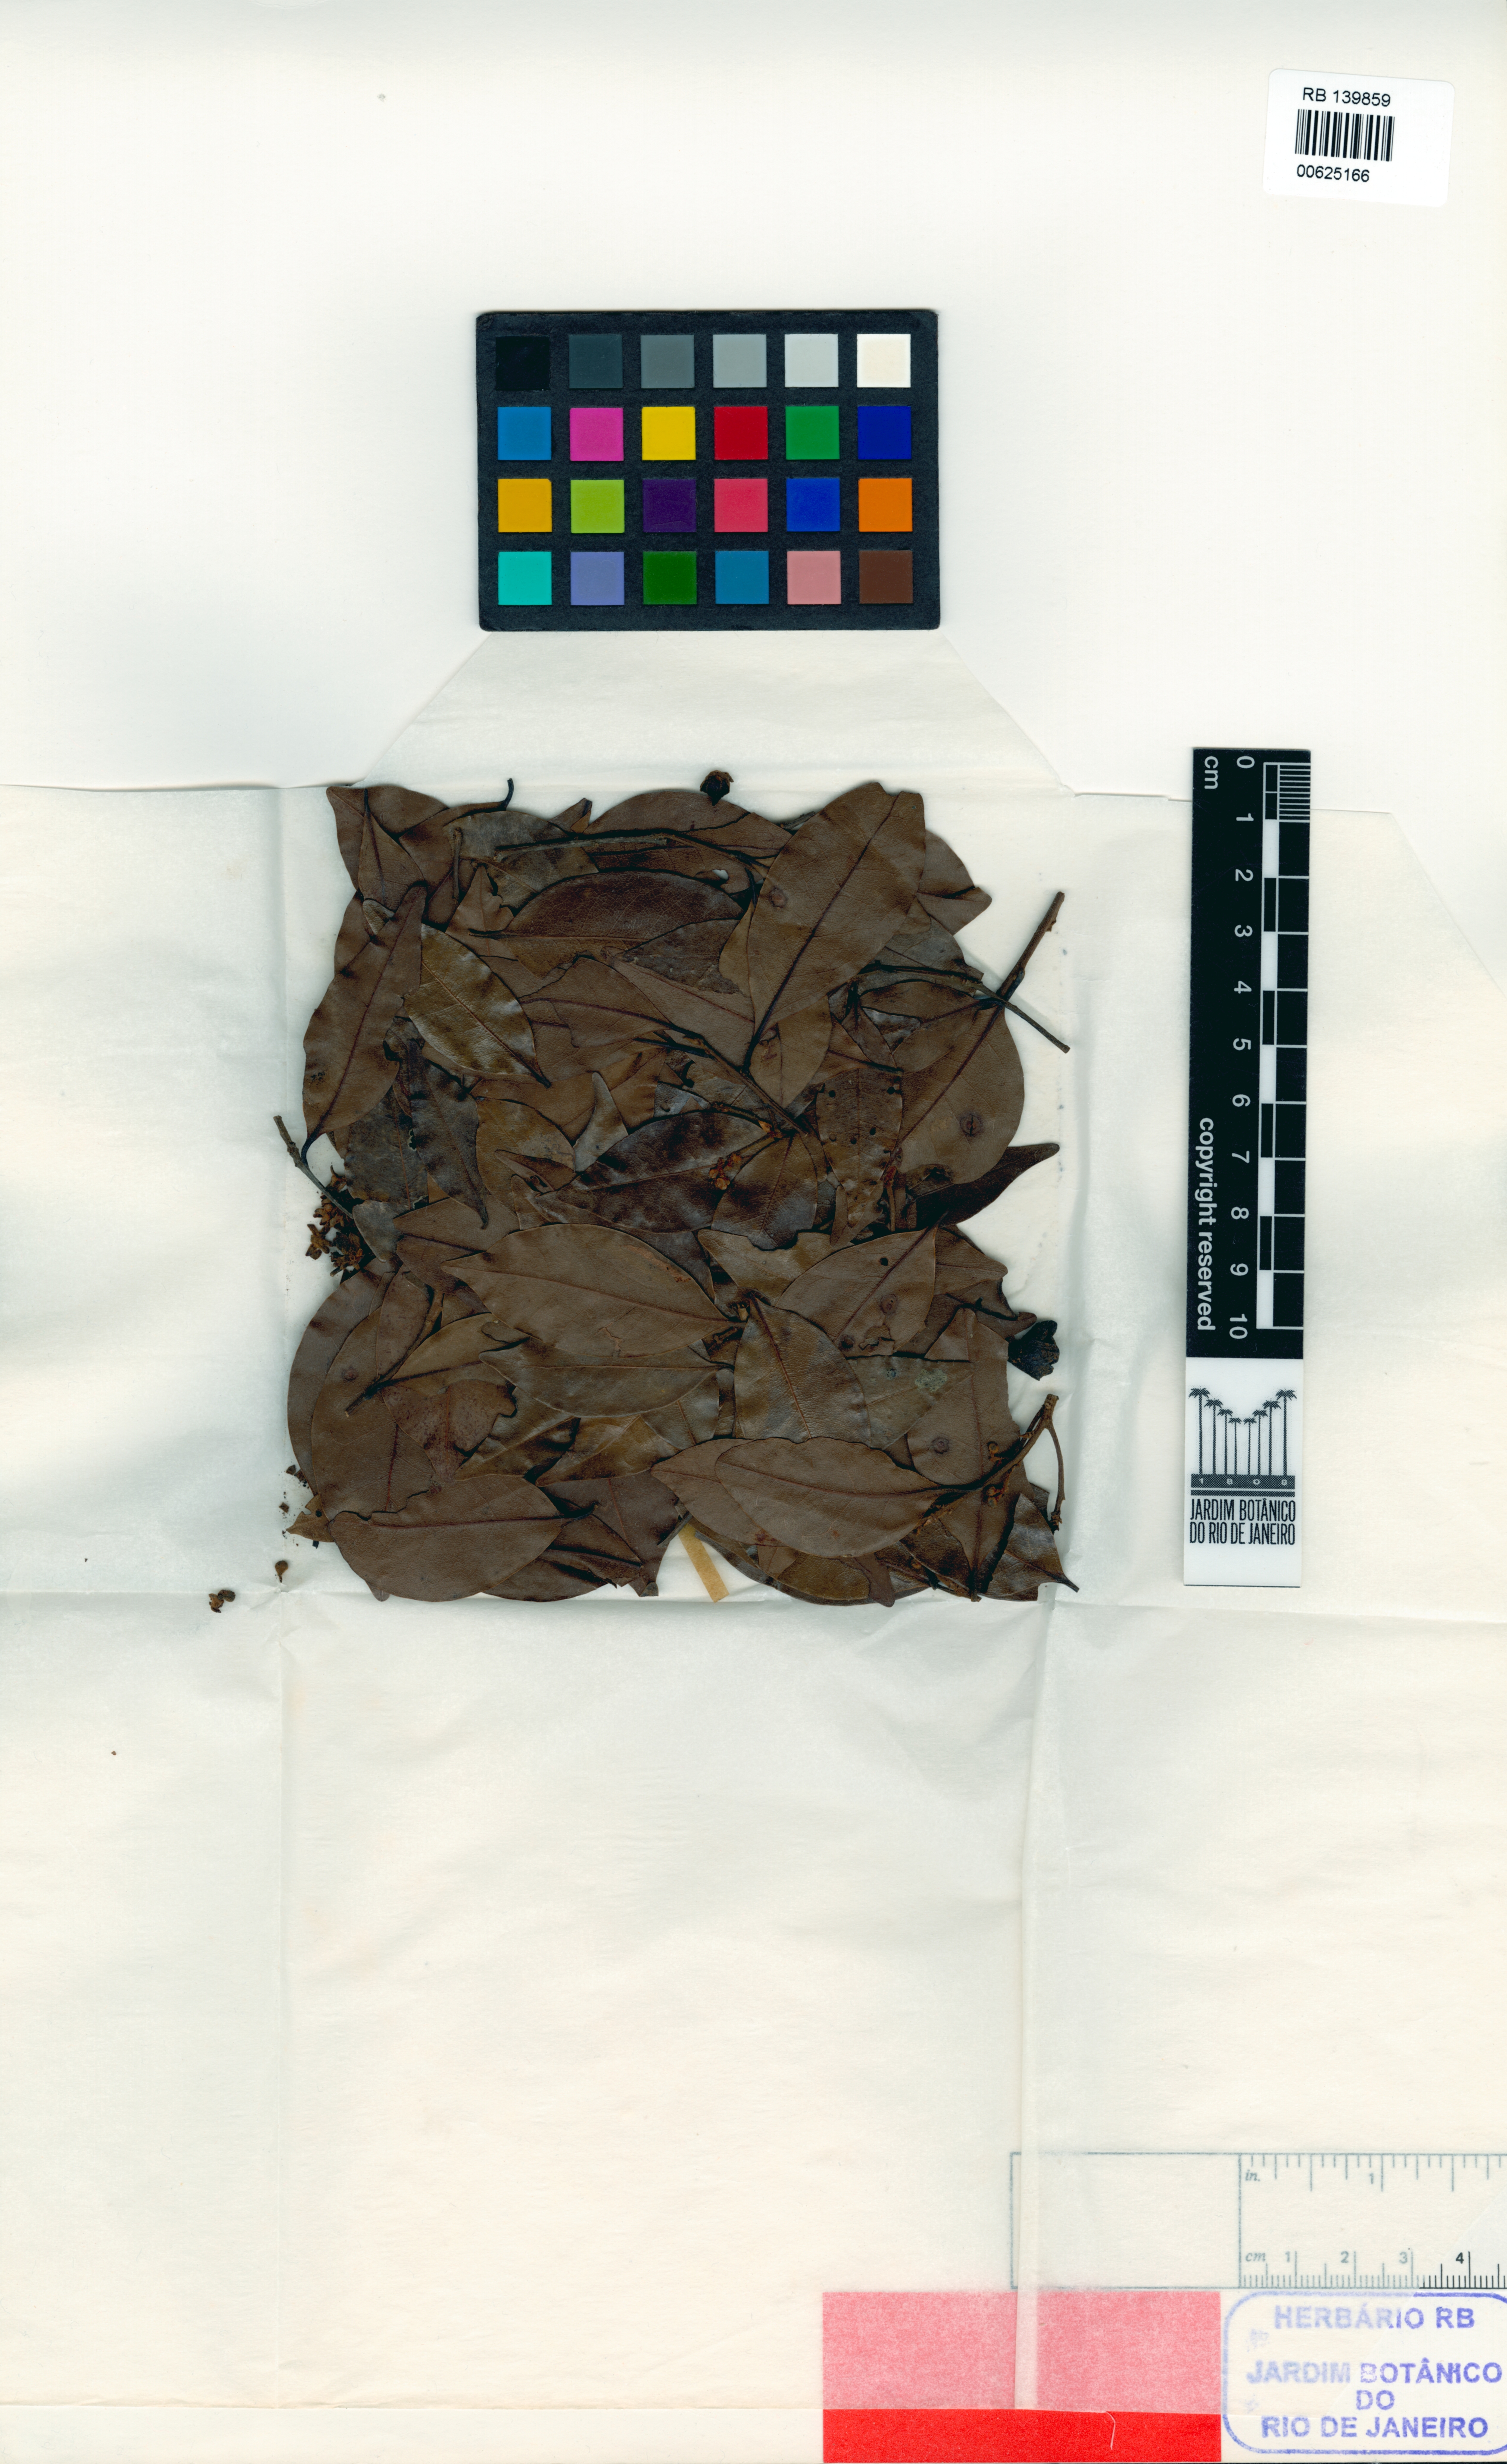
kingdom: Plantae
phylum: Tracheophyta
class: Magnoliopsida
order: Laurales
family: Lauraceae
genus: Ocotea
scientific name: Ocotea marcescens
